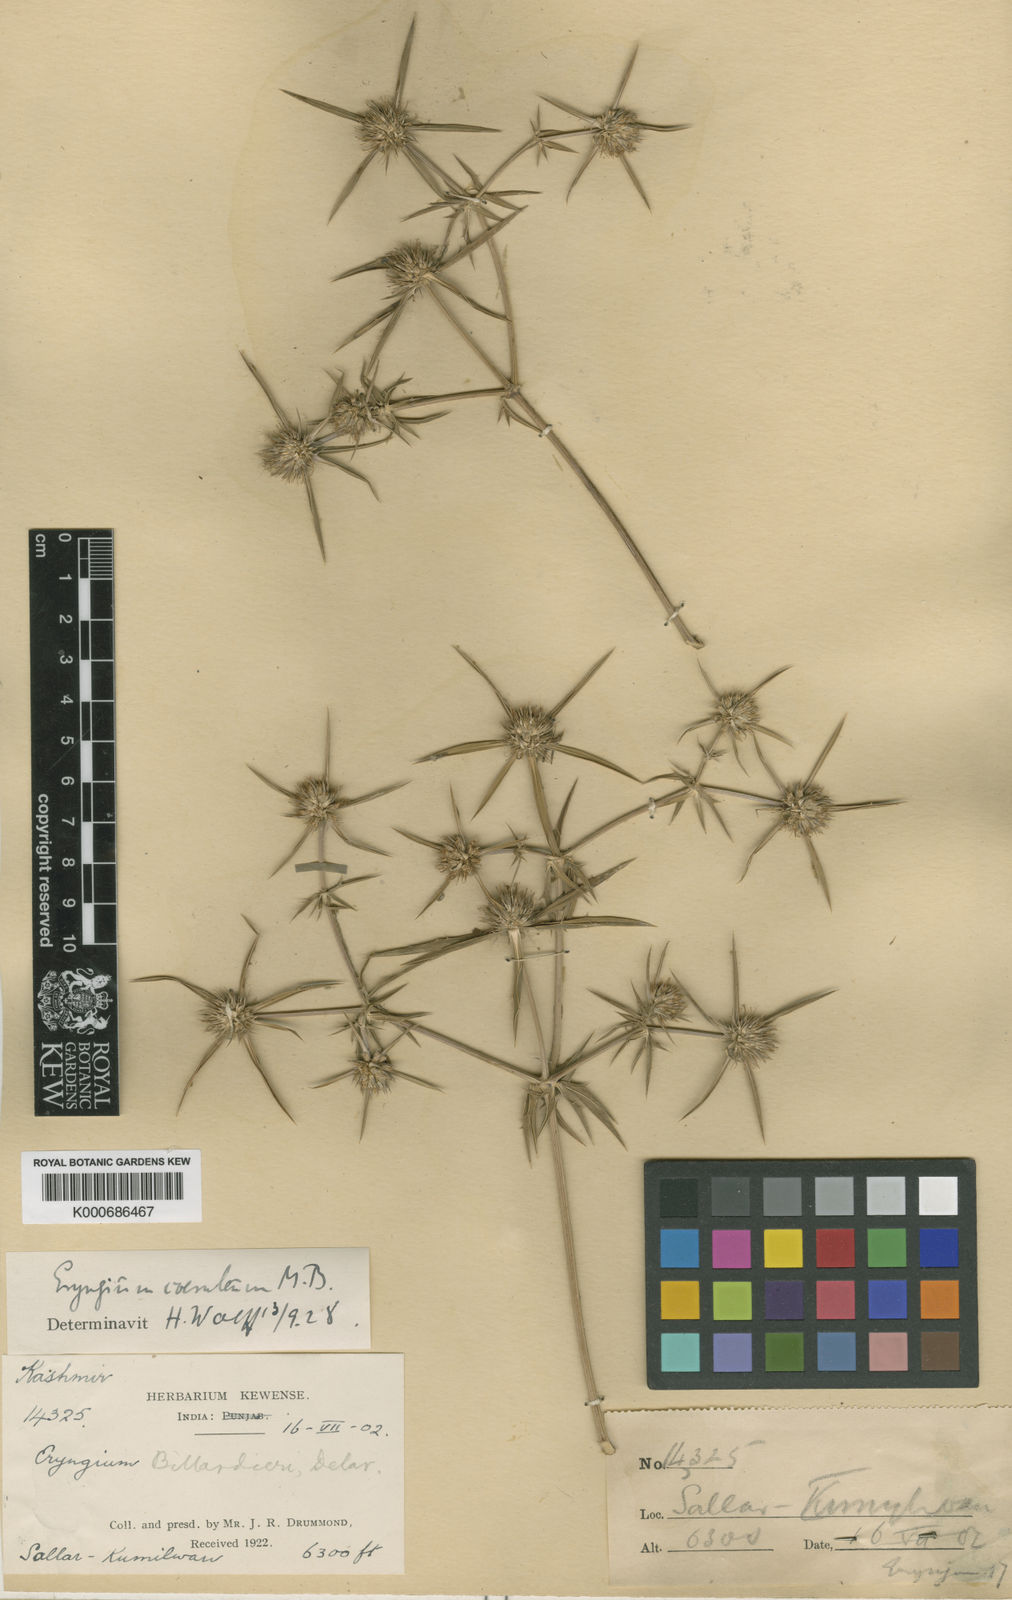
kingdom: Plantae
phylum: Tracheophyta
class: Magnoliopsida
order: Apiales
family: Apiaceae
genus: Eryngium
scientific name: Eryngium caeruleum
